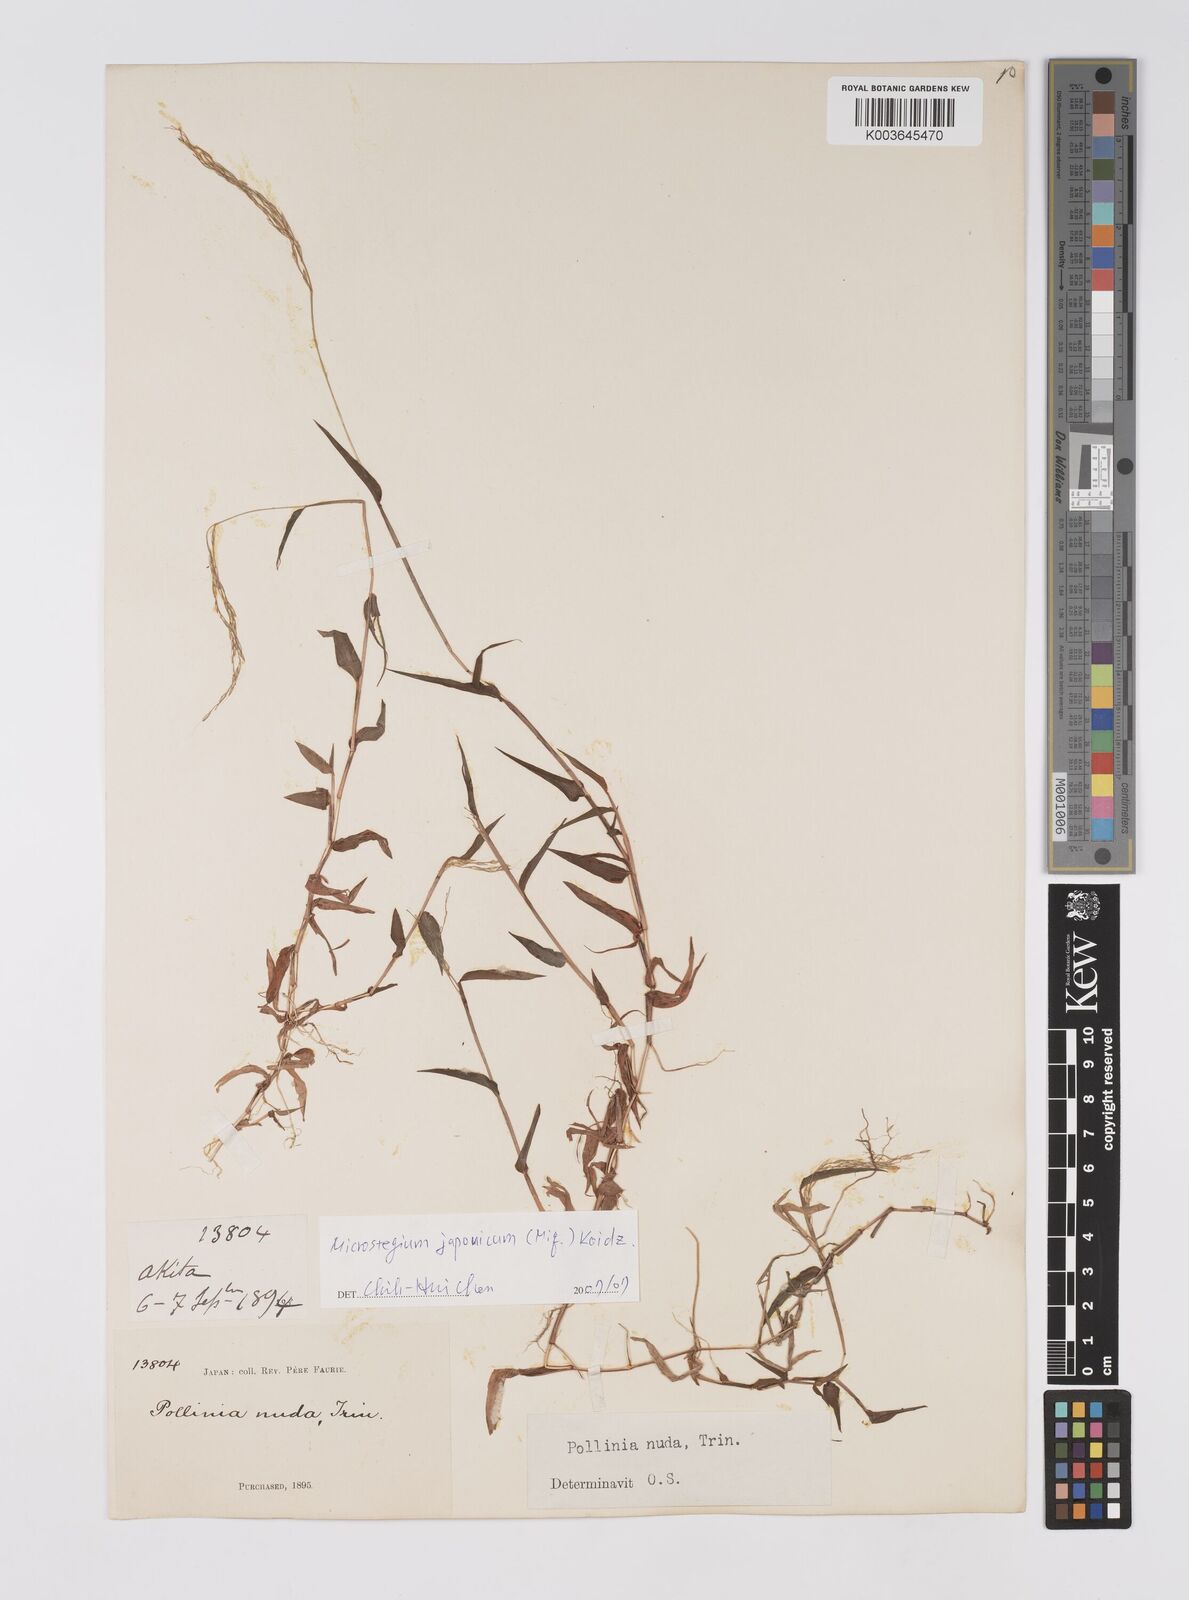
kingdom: Plantae
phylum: Tracheophyta
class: Liliopsida
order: Poales
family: Poaceae
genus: Microstegium
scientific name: Microstegium japonicum
